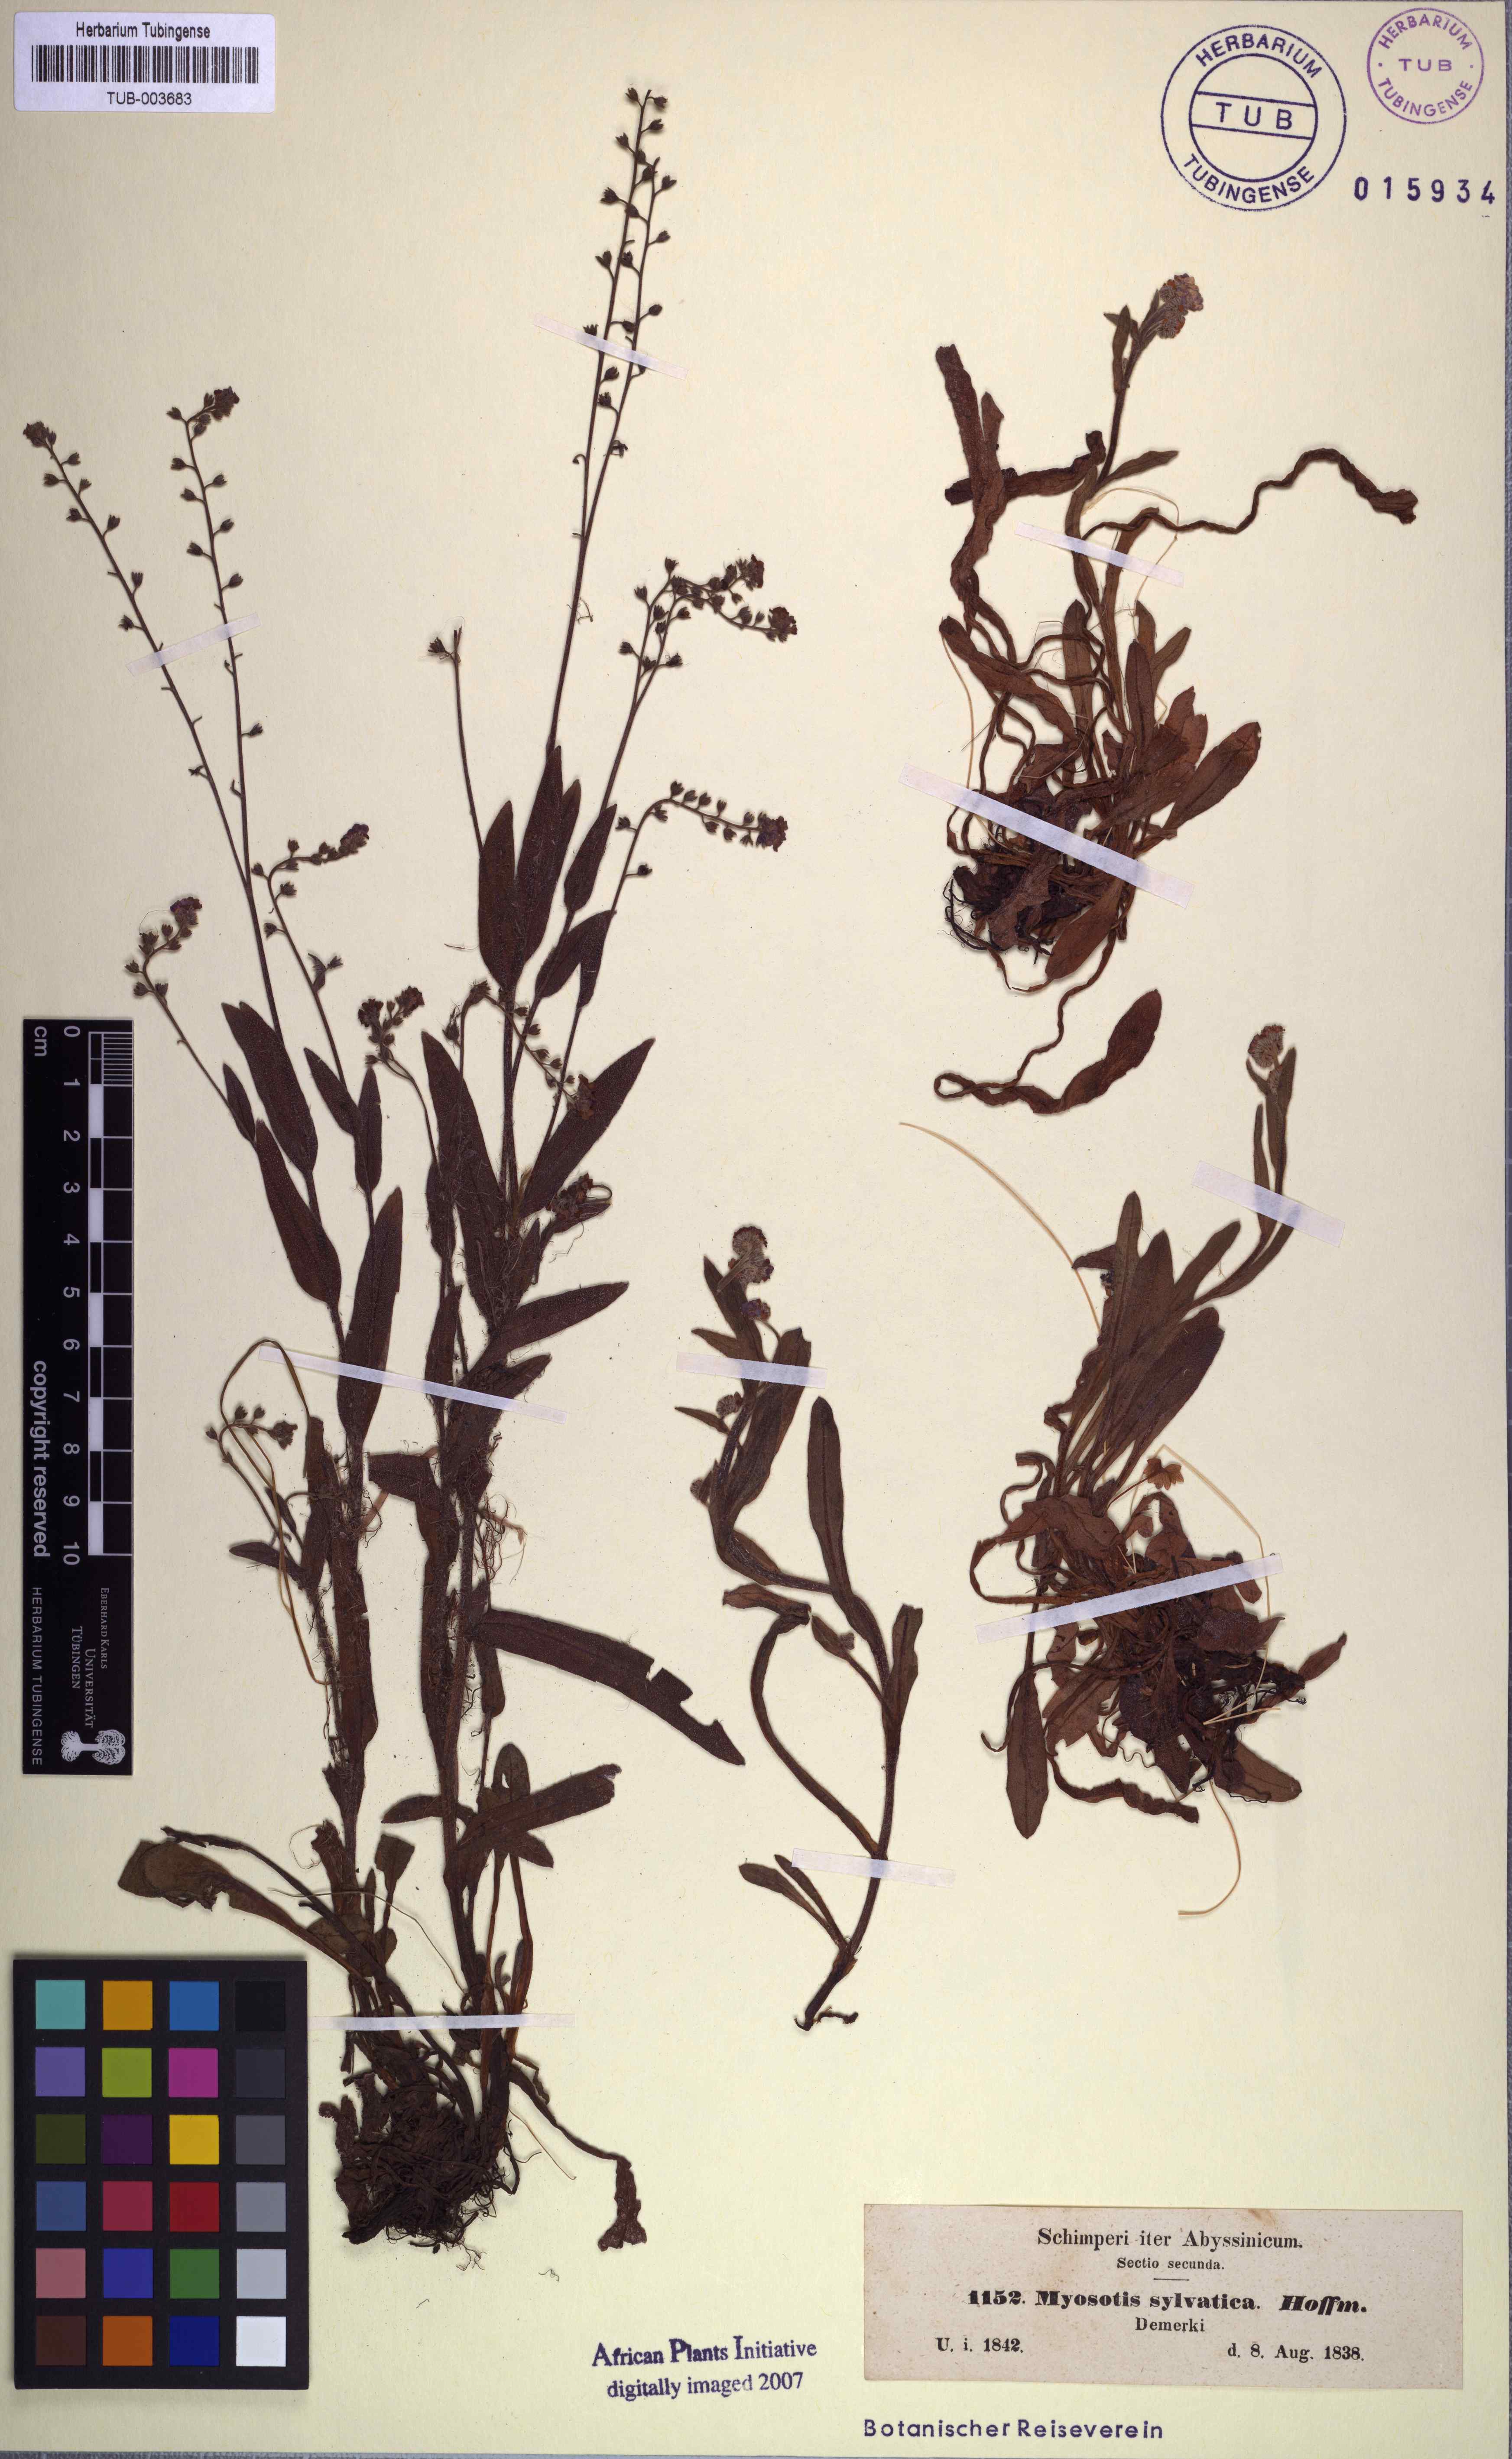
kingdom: Plantae
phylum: Tracheophyta
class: Magnoliopsida
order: Boraginales
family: Boraginaceae
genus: Myosotis
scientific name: Myosotis ramosissima
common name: Early forget-me-not
